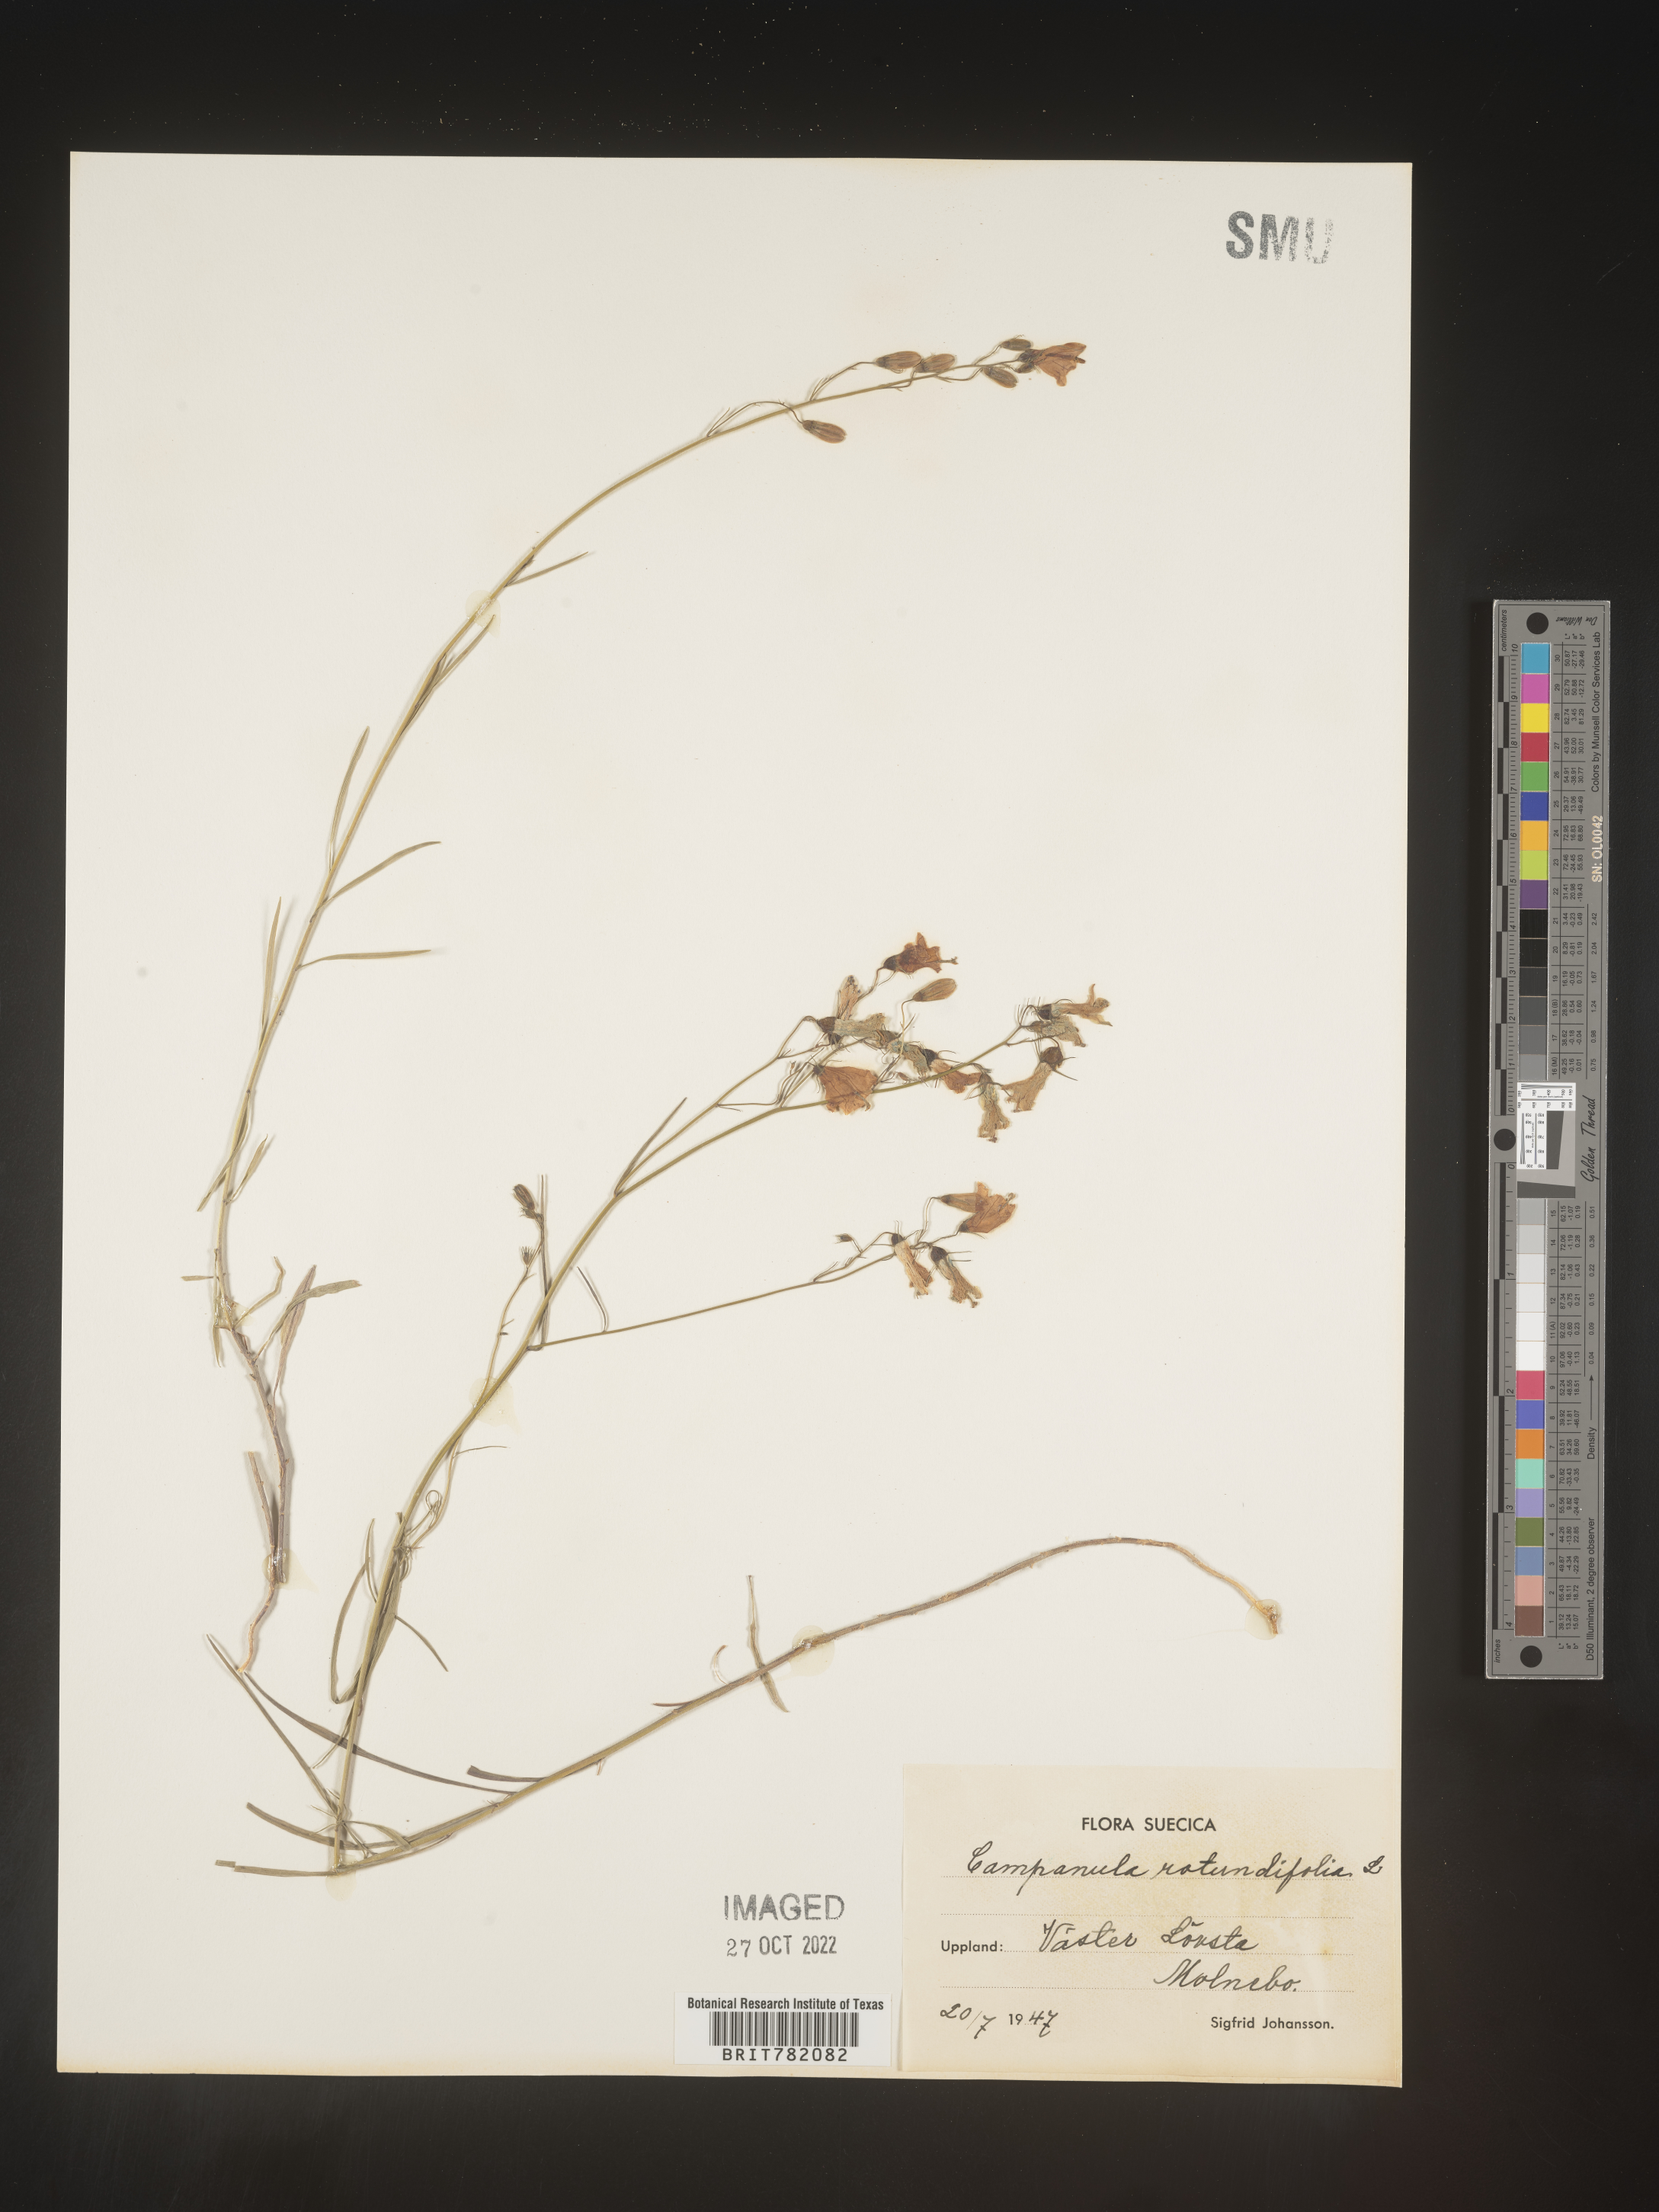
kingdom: Plantae
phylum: Tracheophyta
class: Magnoliopsida
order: Asterales
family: Campanulaceae
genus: Campanula
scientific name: Campanula rotundifolia
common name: Harebell
